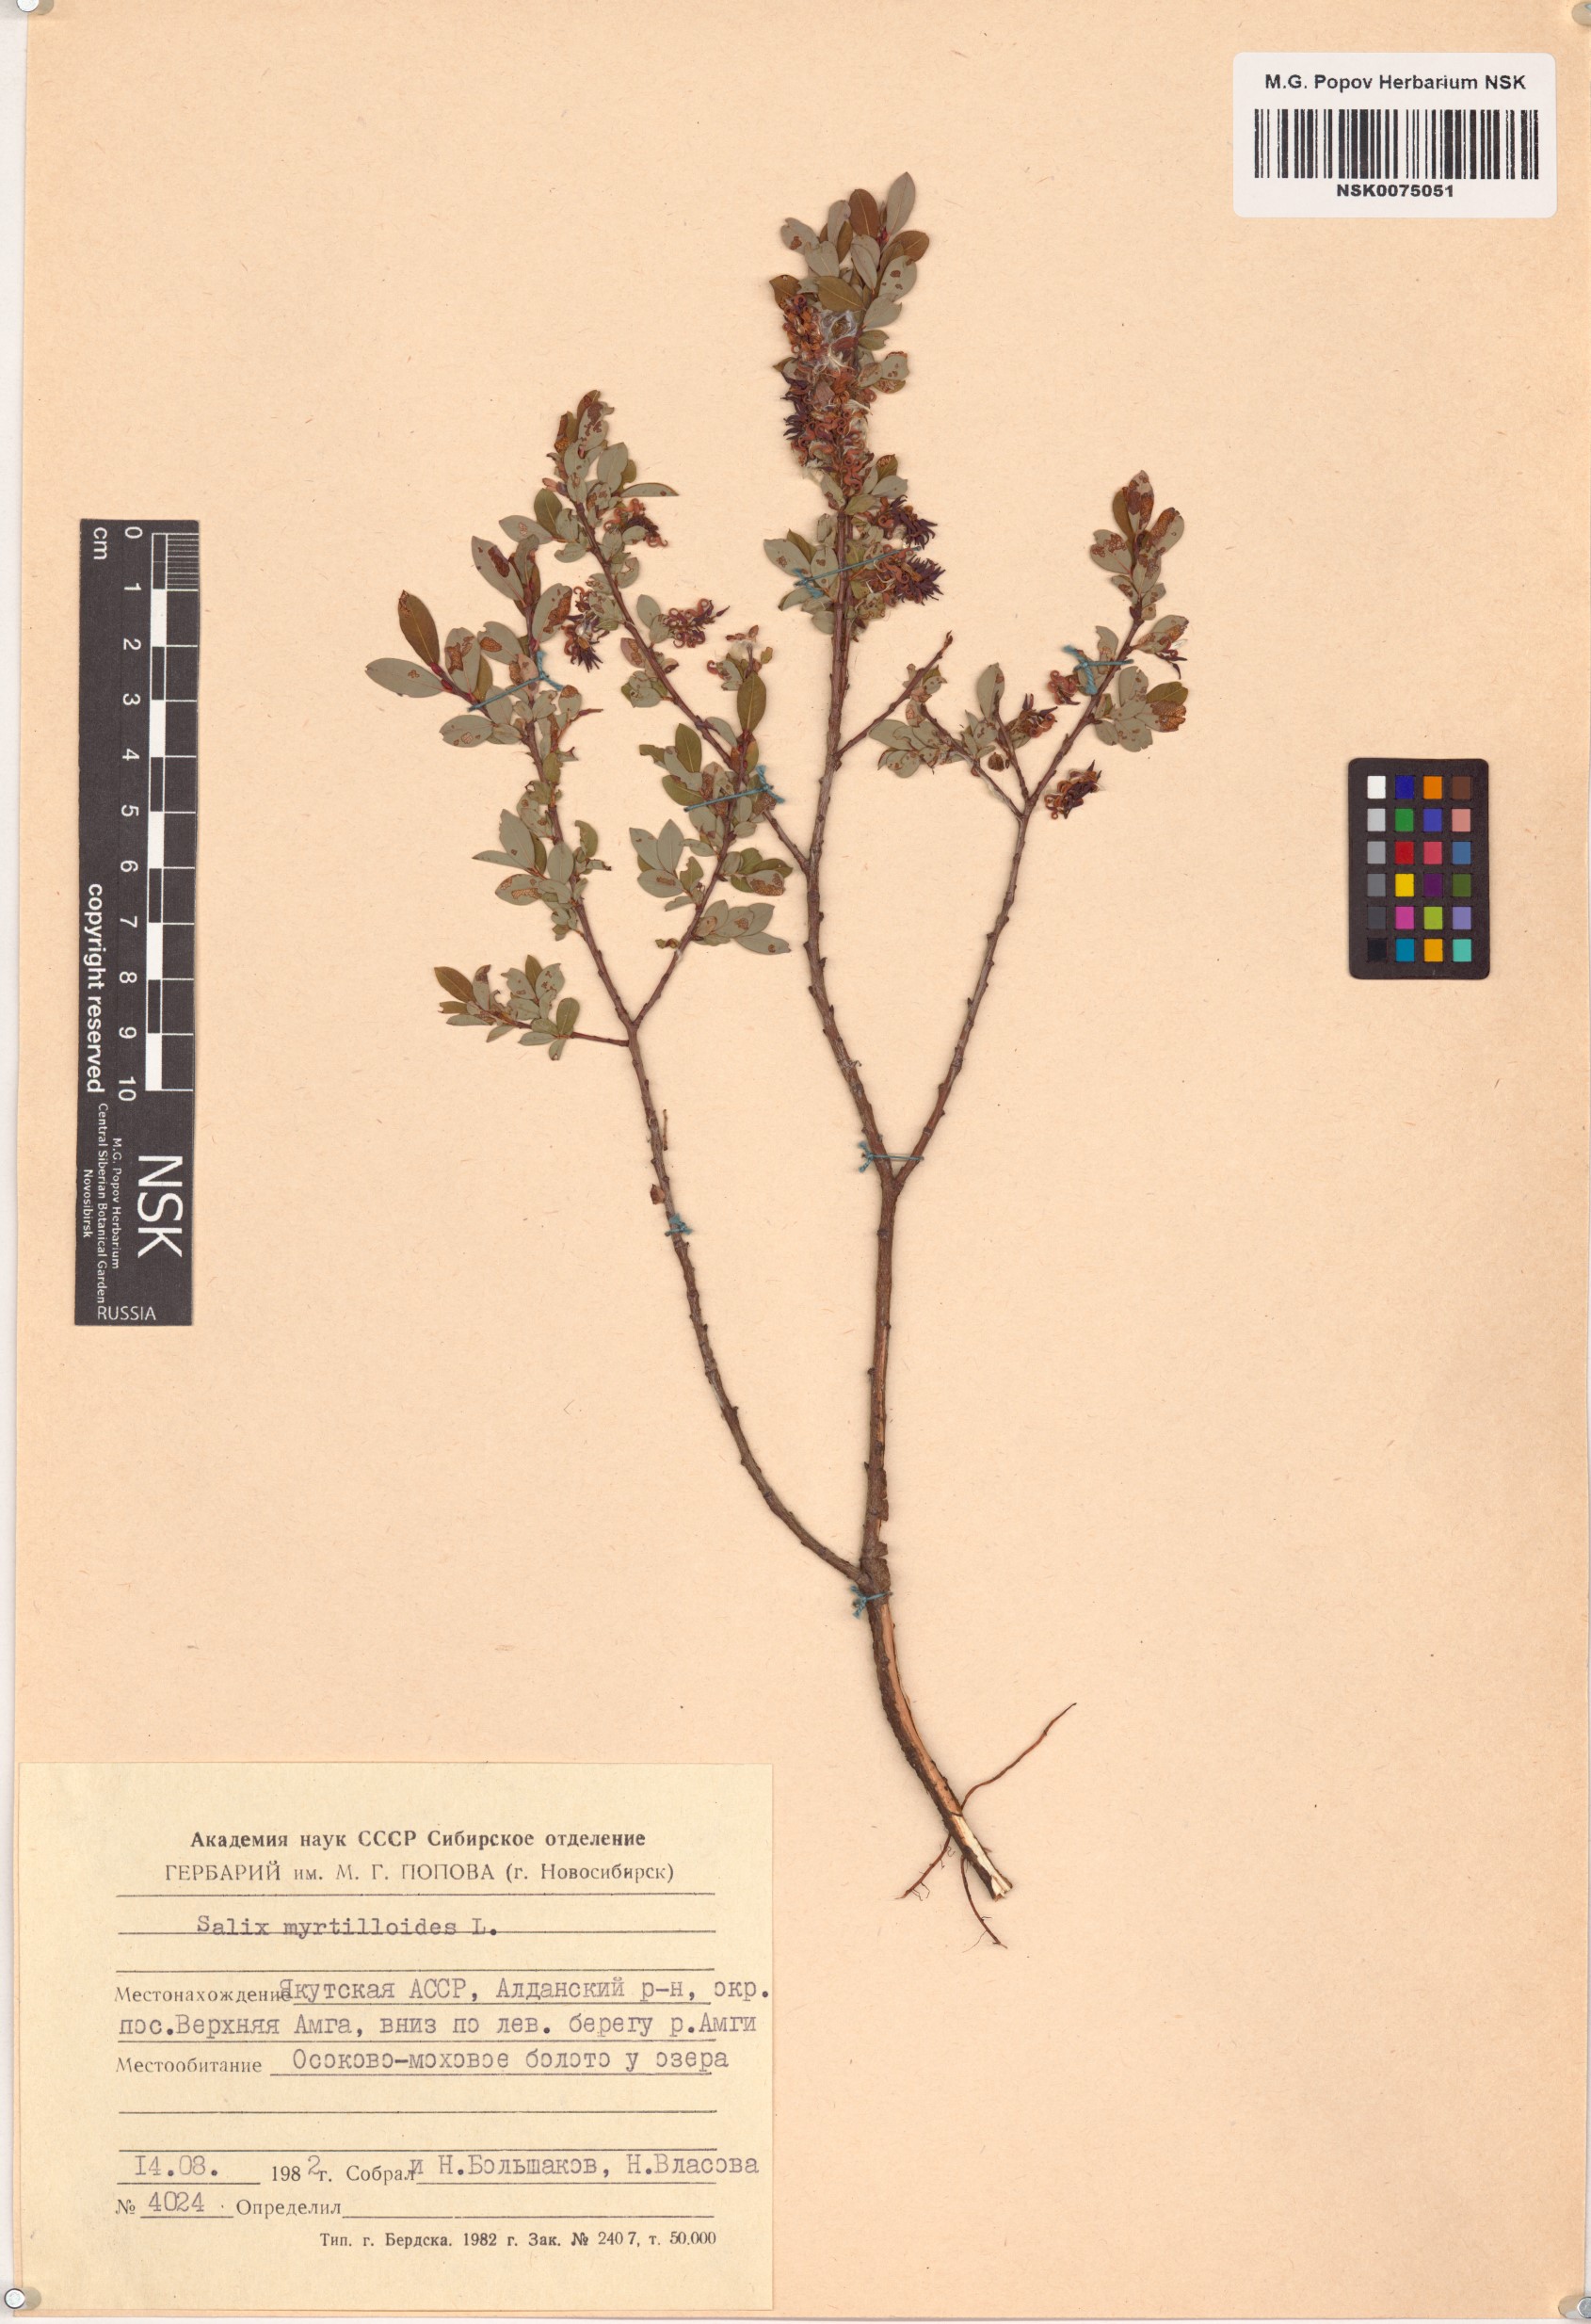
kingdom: Plantae
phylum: Tracheophyta
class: Magnoliopsida
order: Malpighiales
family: Salicaceae
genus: Salix
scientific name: Salix myrtilloides
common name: Myrtle-leaved willow
